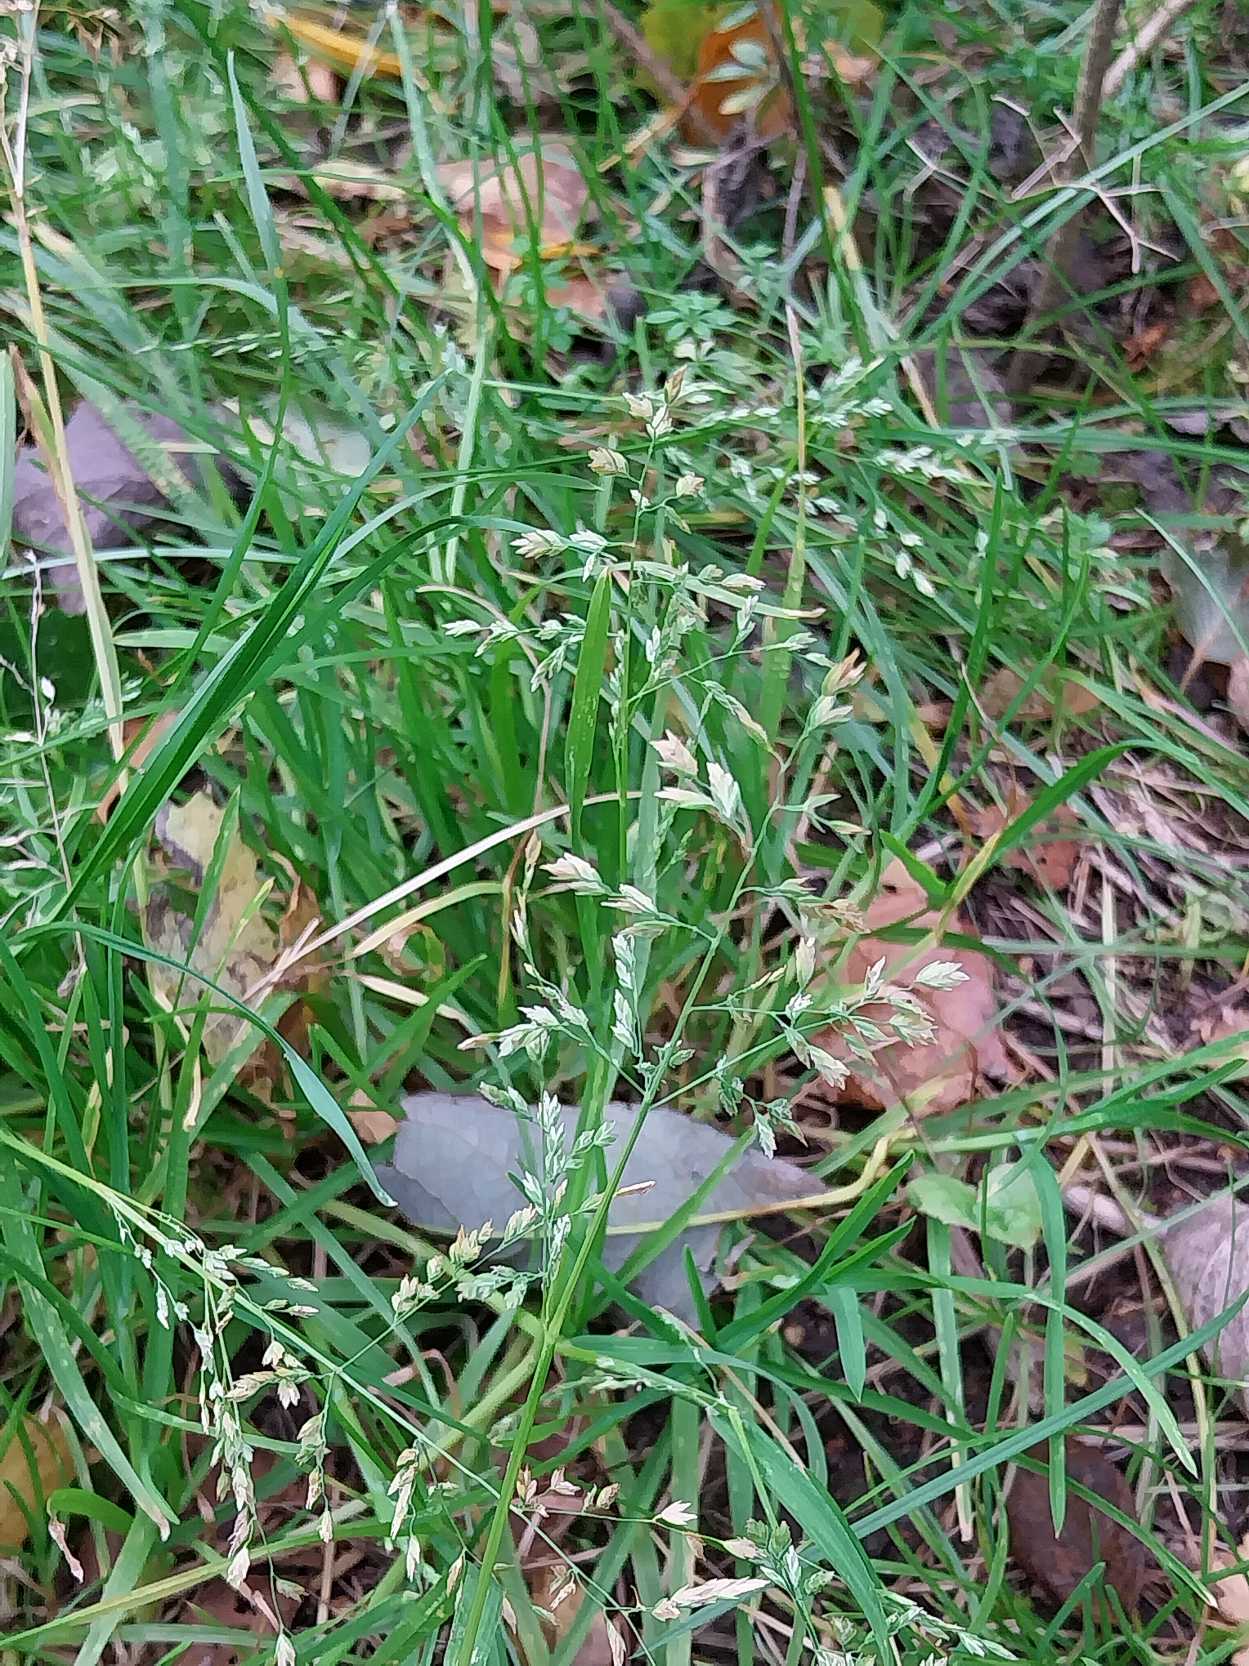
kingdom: Plantae
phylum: Tracheophyta
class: Liliopsida
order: Poales
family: Poaceae
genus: Poa
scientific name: Poa annua
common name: Enårig rapgræs
